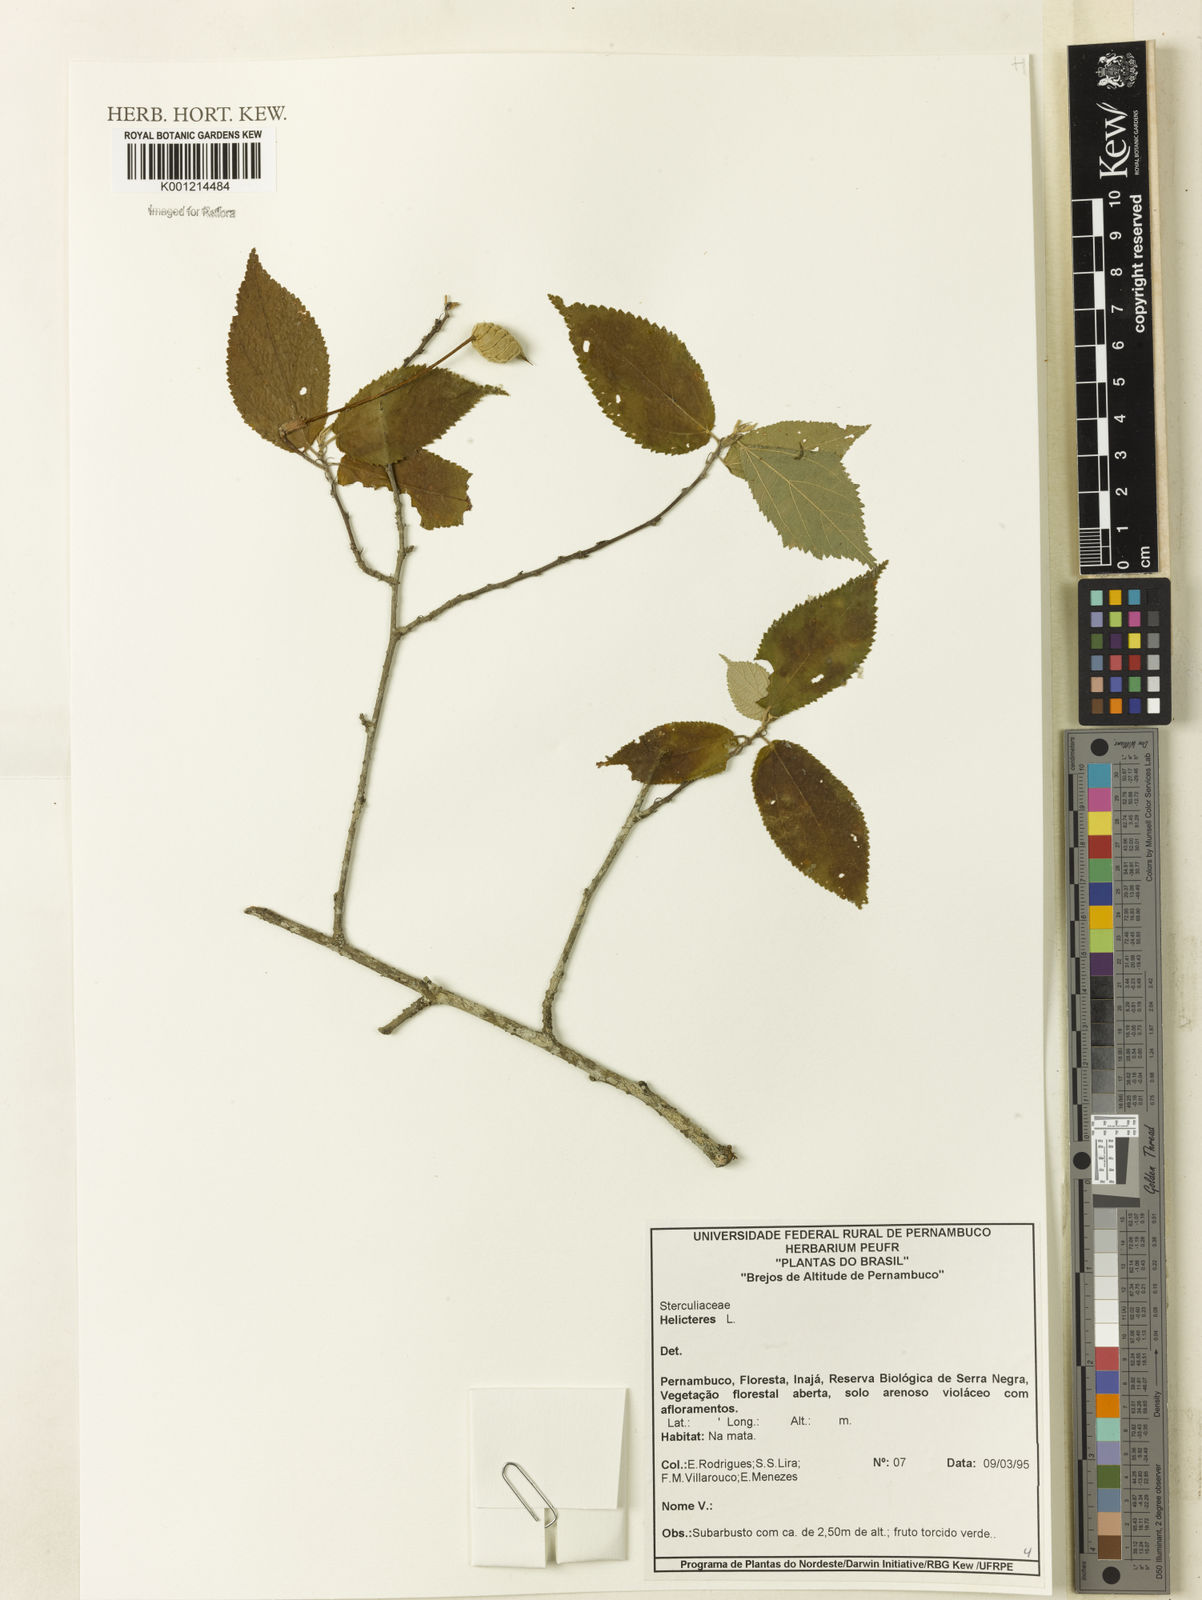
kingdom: Plantae
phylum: Tracheophyta
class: Magnoliopsida
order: Malvales
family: Malvaceae
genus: Helicteres
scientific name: Helicteres
